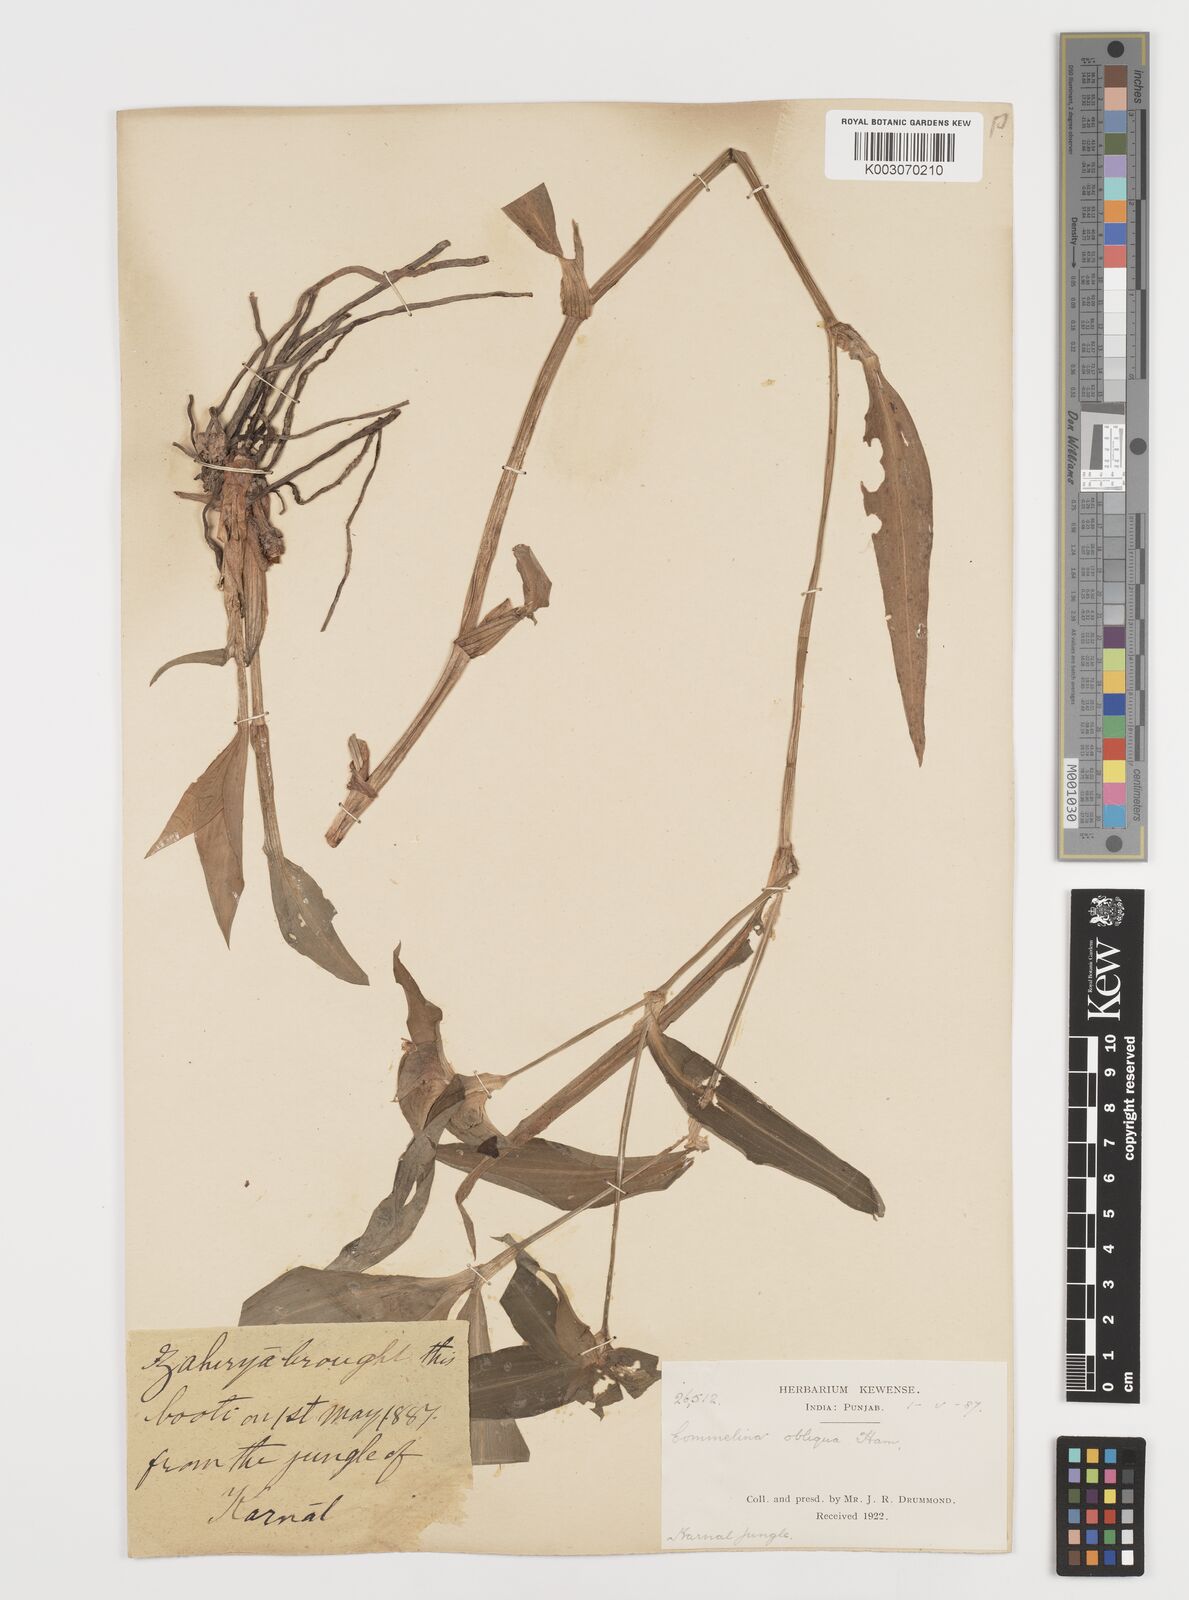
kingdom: Plantae
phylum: Tracheophyta
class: Liliopsida
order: Commelinales
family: Commelinaceae
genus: Commelina
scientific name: Commelina paludosa
